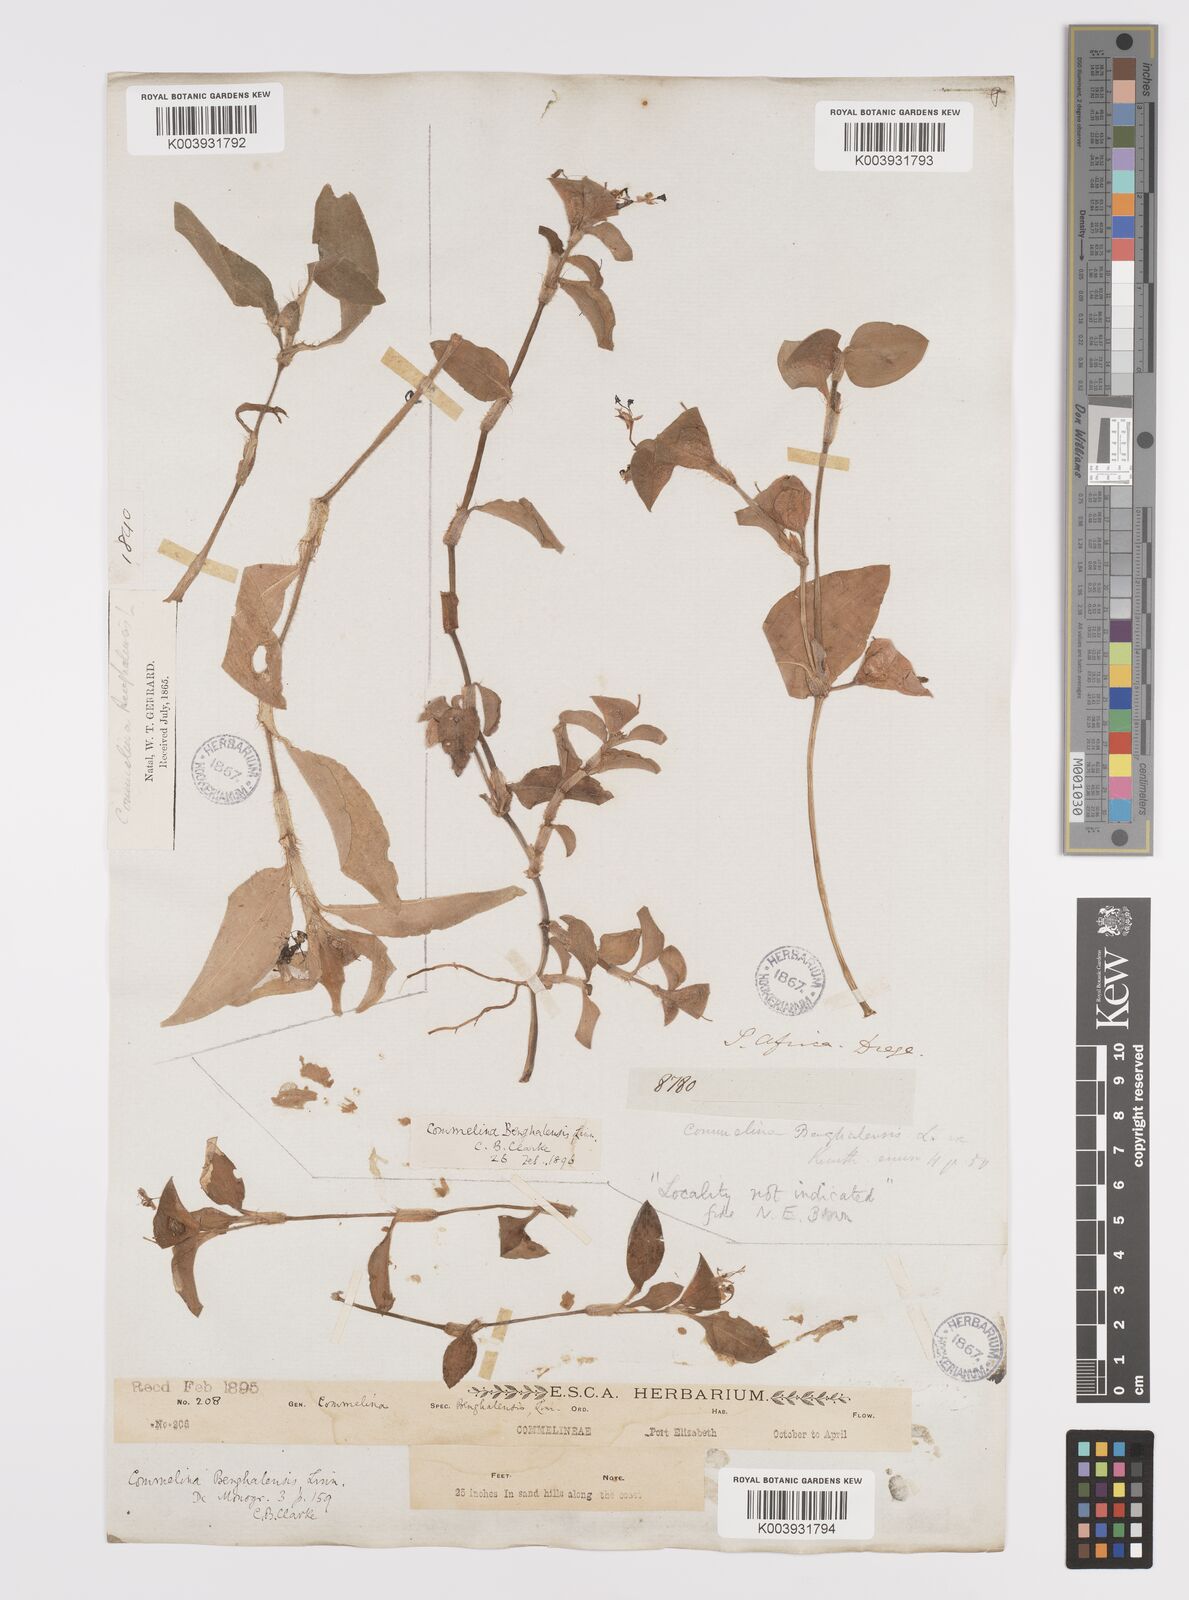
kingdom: Plantae
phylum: Tracheophyta
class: Liliopsida
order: Commelinales
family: Commelinaceae
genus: Commelina
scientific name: Commelina benghalensis
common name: Jio
